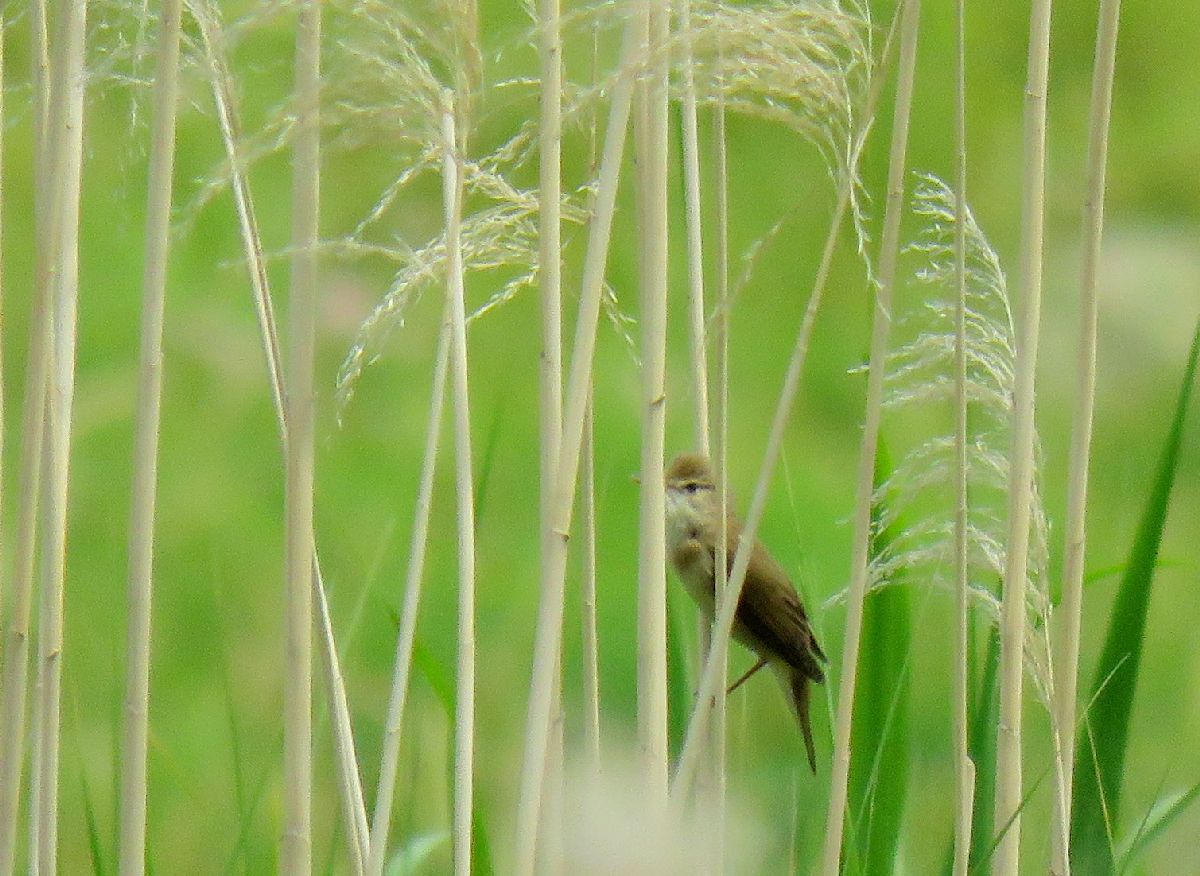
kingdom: Animalia
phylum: Chordata
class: Aves
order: Passeriformes
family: Acrocephalidae
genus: Acrocephalus
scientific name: Acrocephalus palustris
